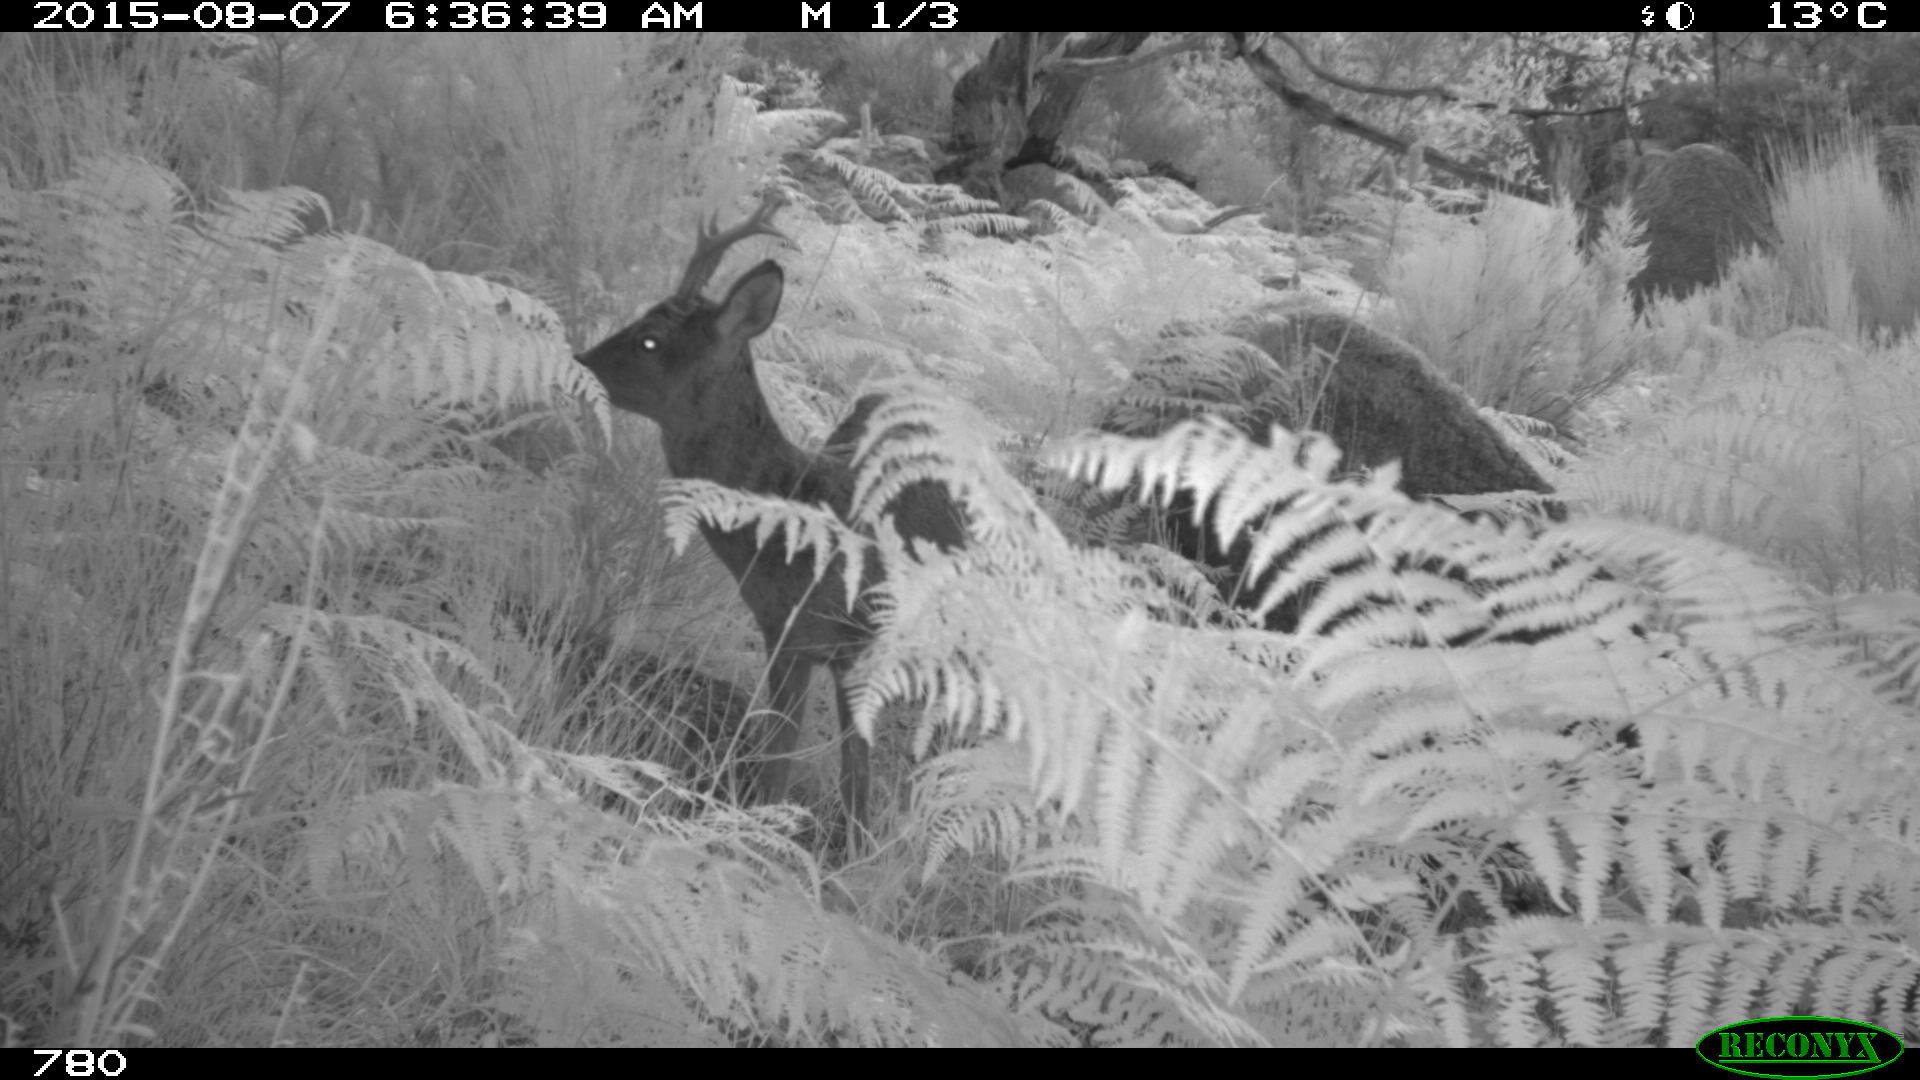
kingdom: Animalia
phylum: Chordata
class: Mammalia
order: Artiodactyla
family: Cervidae
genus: Capreolus
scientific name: Capreolus capreolus
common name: Western roe deer
